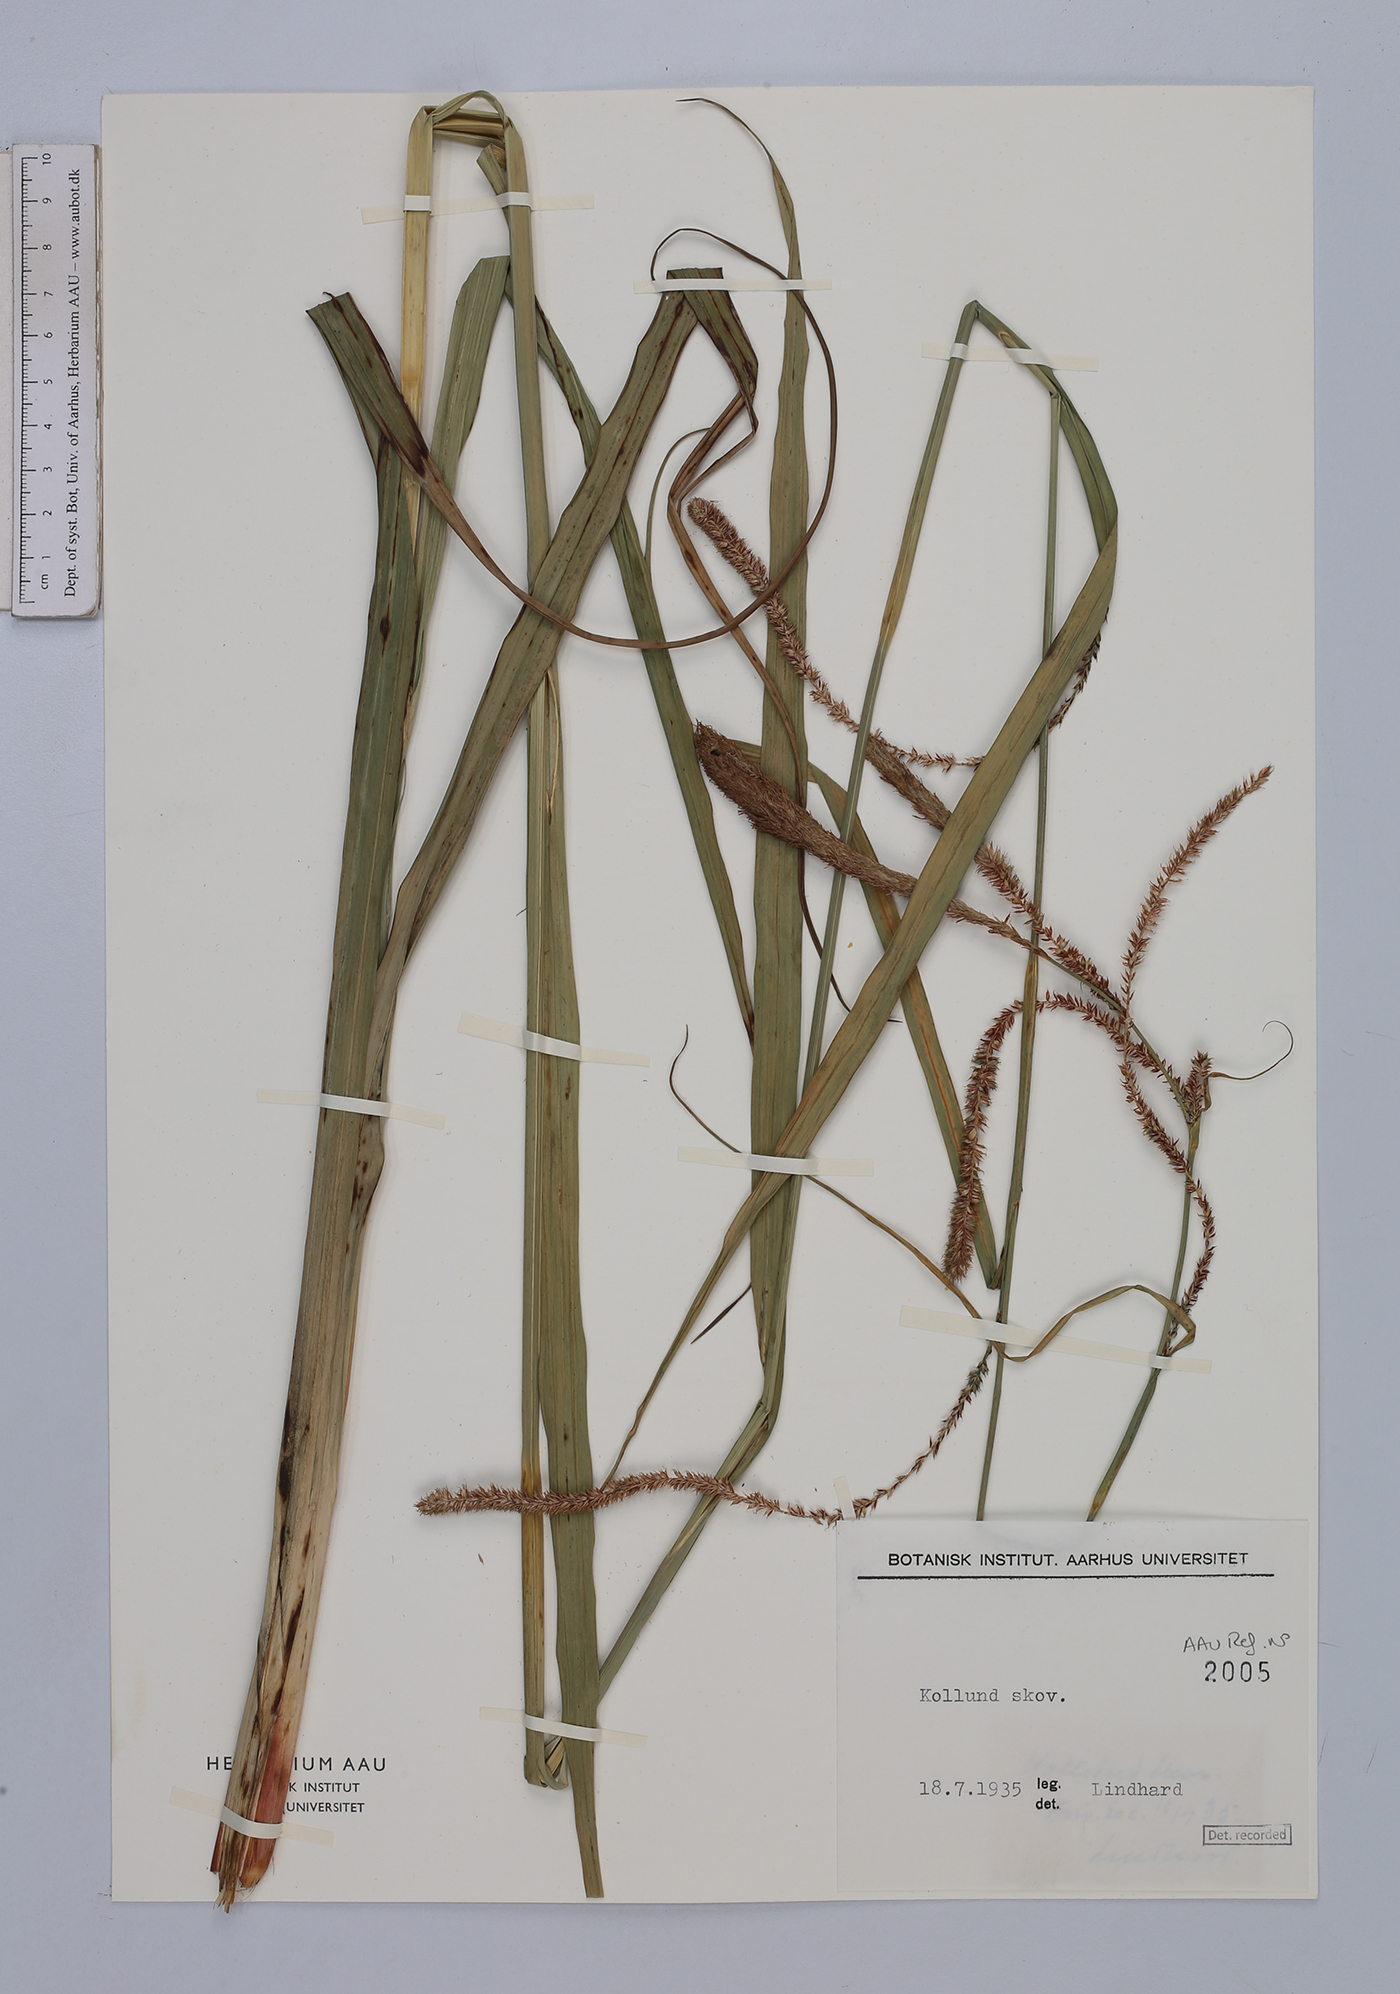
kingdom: Plantae
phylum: Tracheophyta
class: Liliopsida
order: Poales
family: Cyperaceae
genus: Carex
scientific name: Carex pendula
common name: Pendulous sedge
